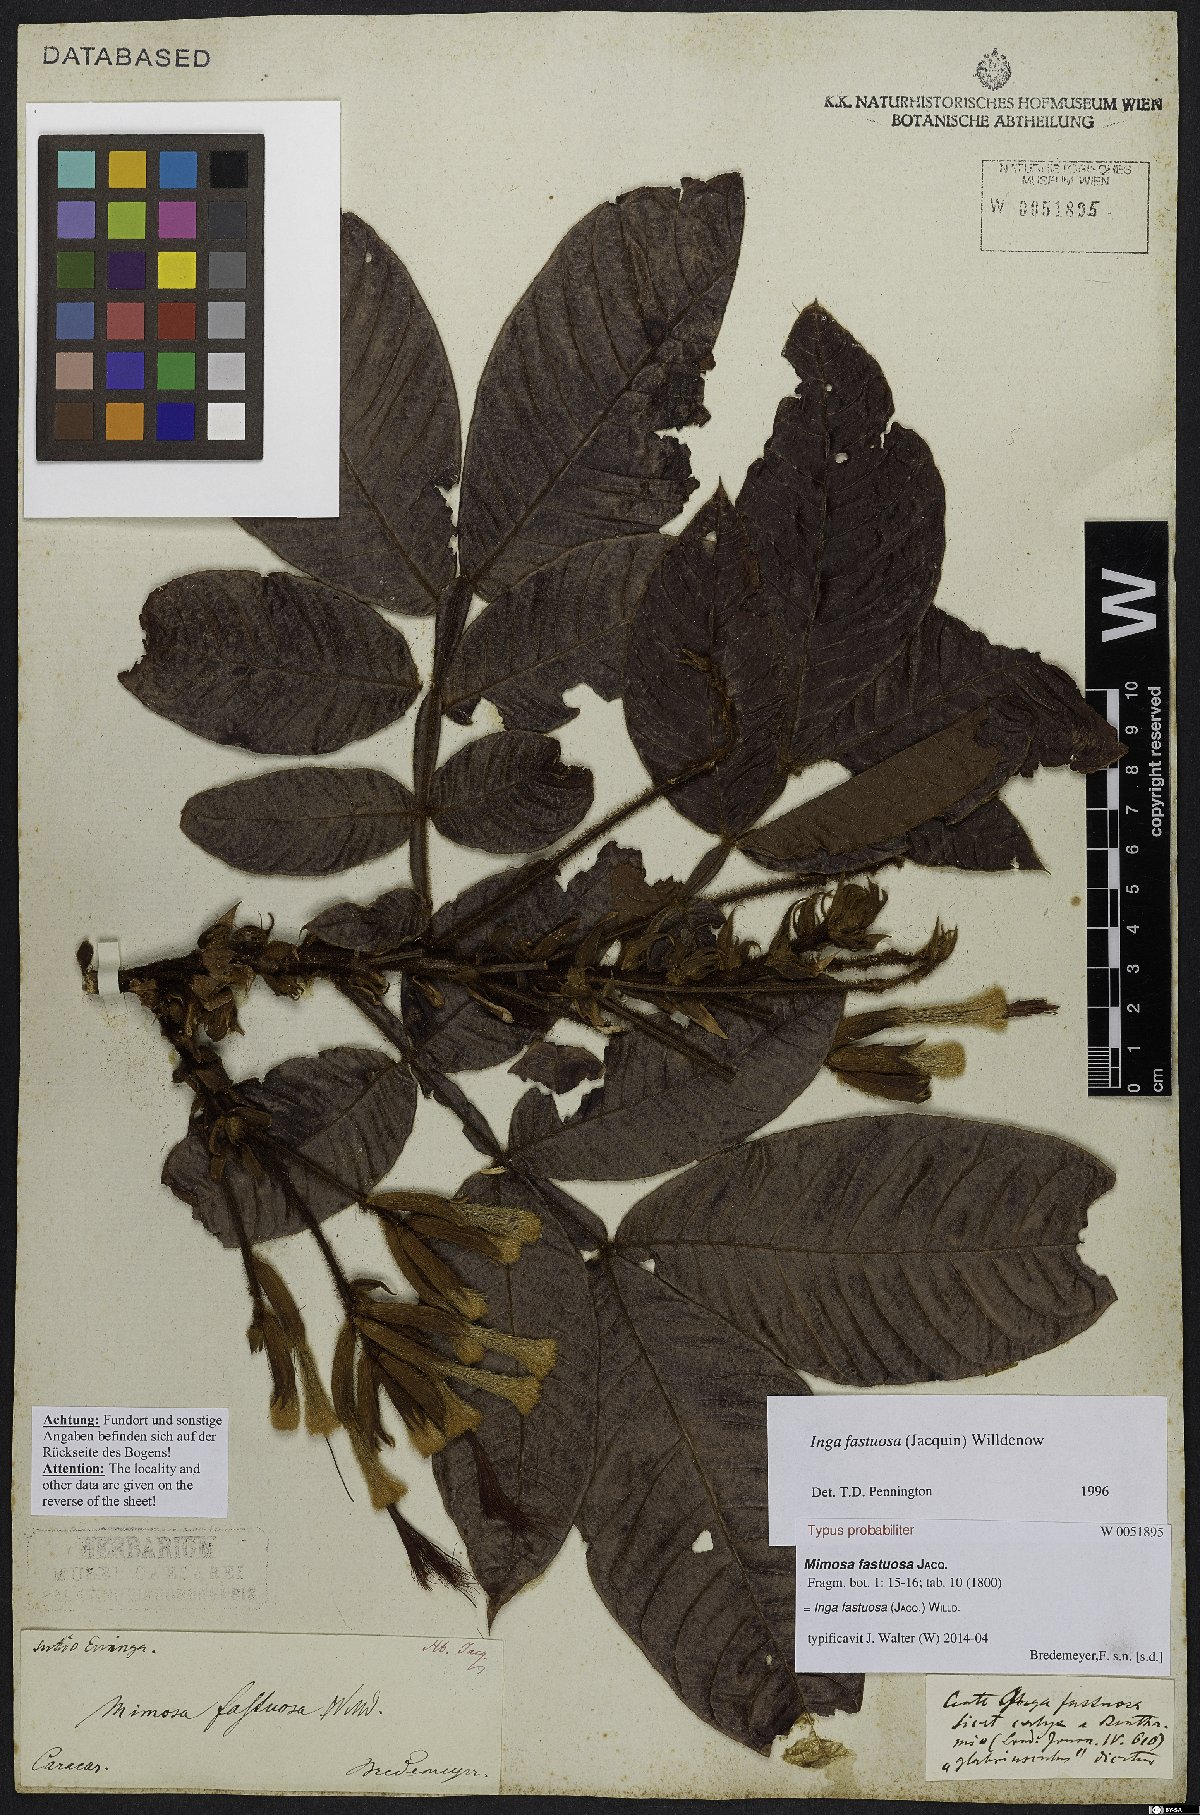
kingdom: Plantae
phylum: Tracheophyta
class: Magnoliopsida
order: Fabales
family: Fabaceae
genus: Inga
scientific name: Inga fastuosa
